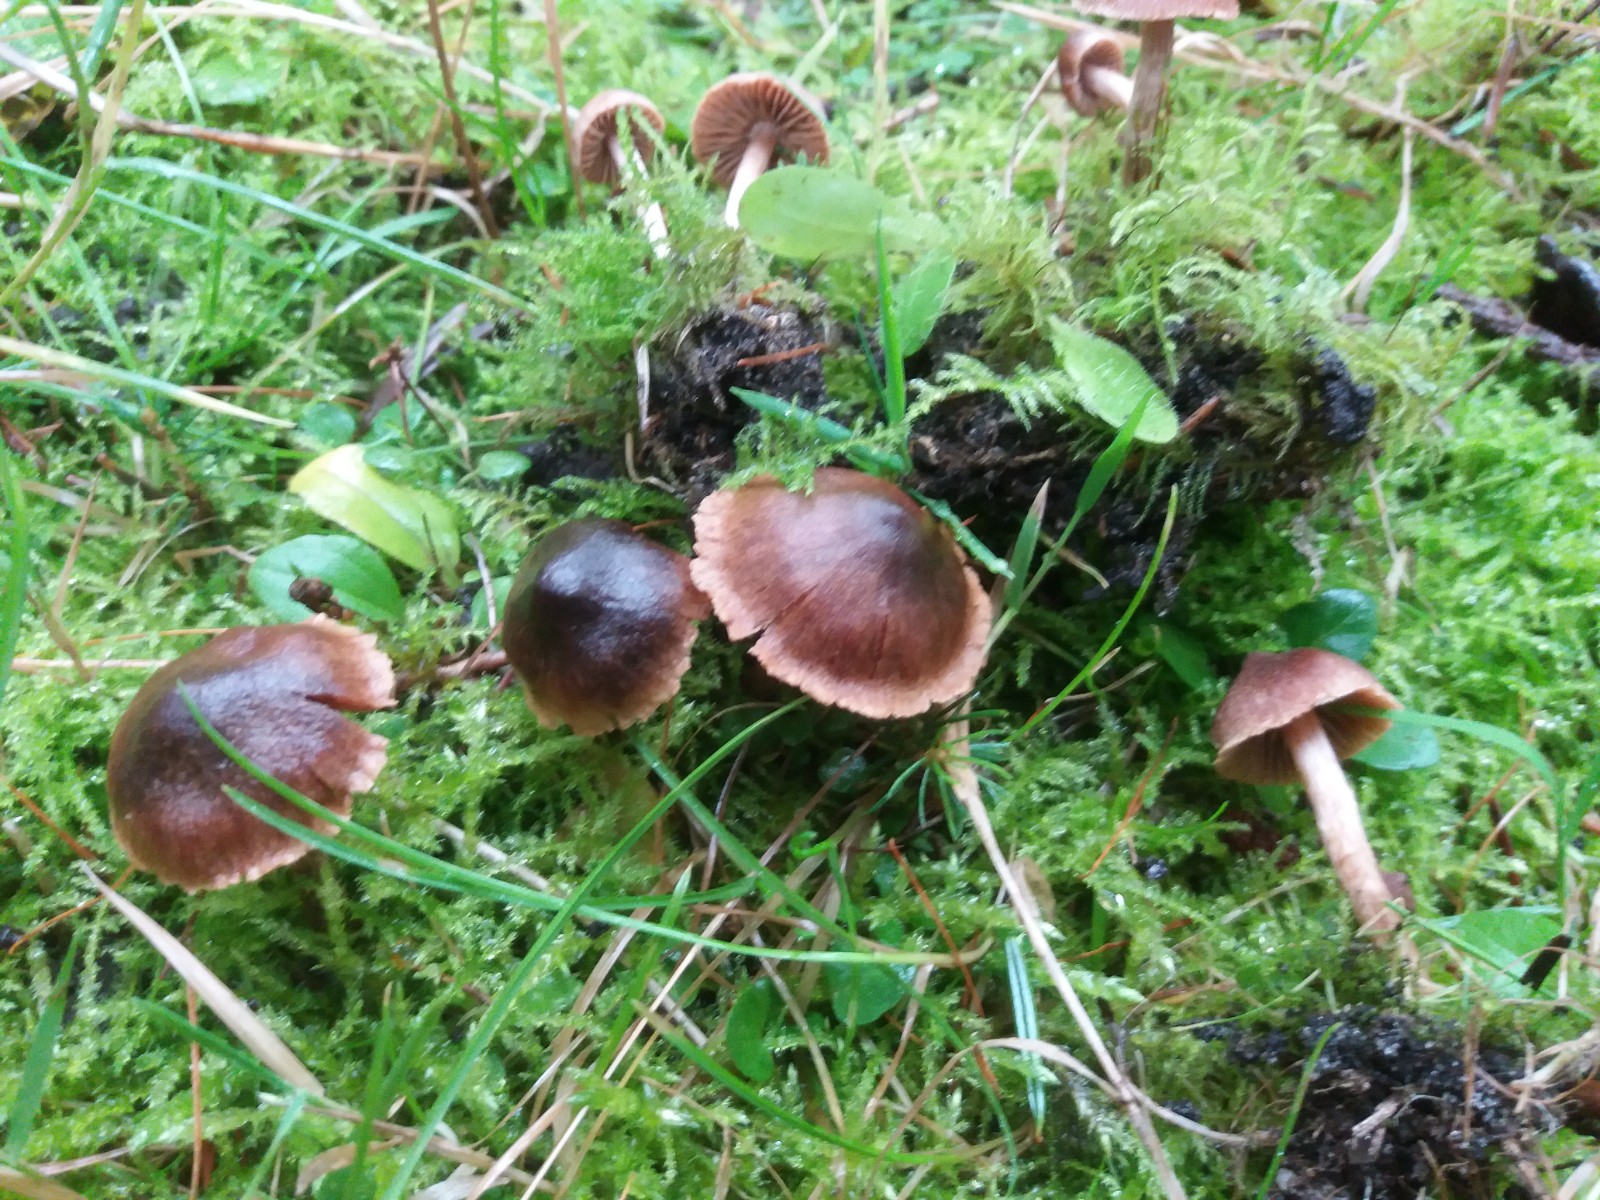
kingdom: Fungi
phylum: Basidiomycota
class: Agaricomycetes
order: Agaricales
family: Cortinariaceae
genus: Cortinarius
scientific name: Cortinarius
